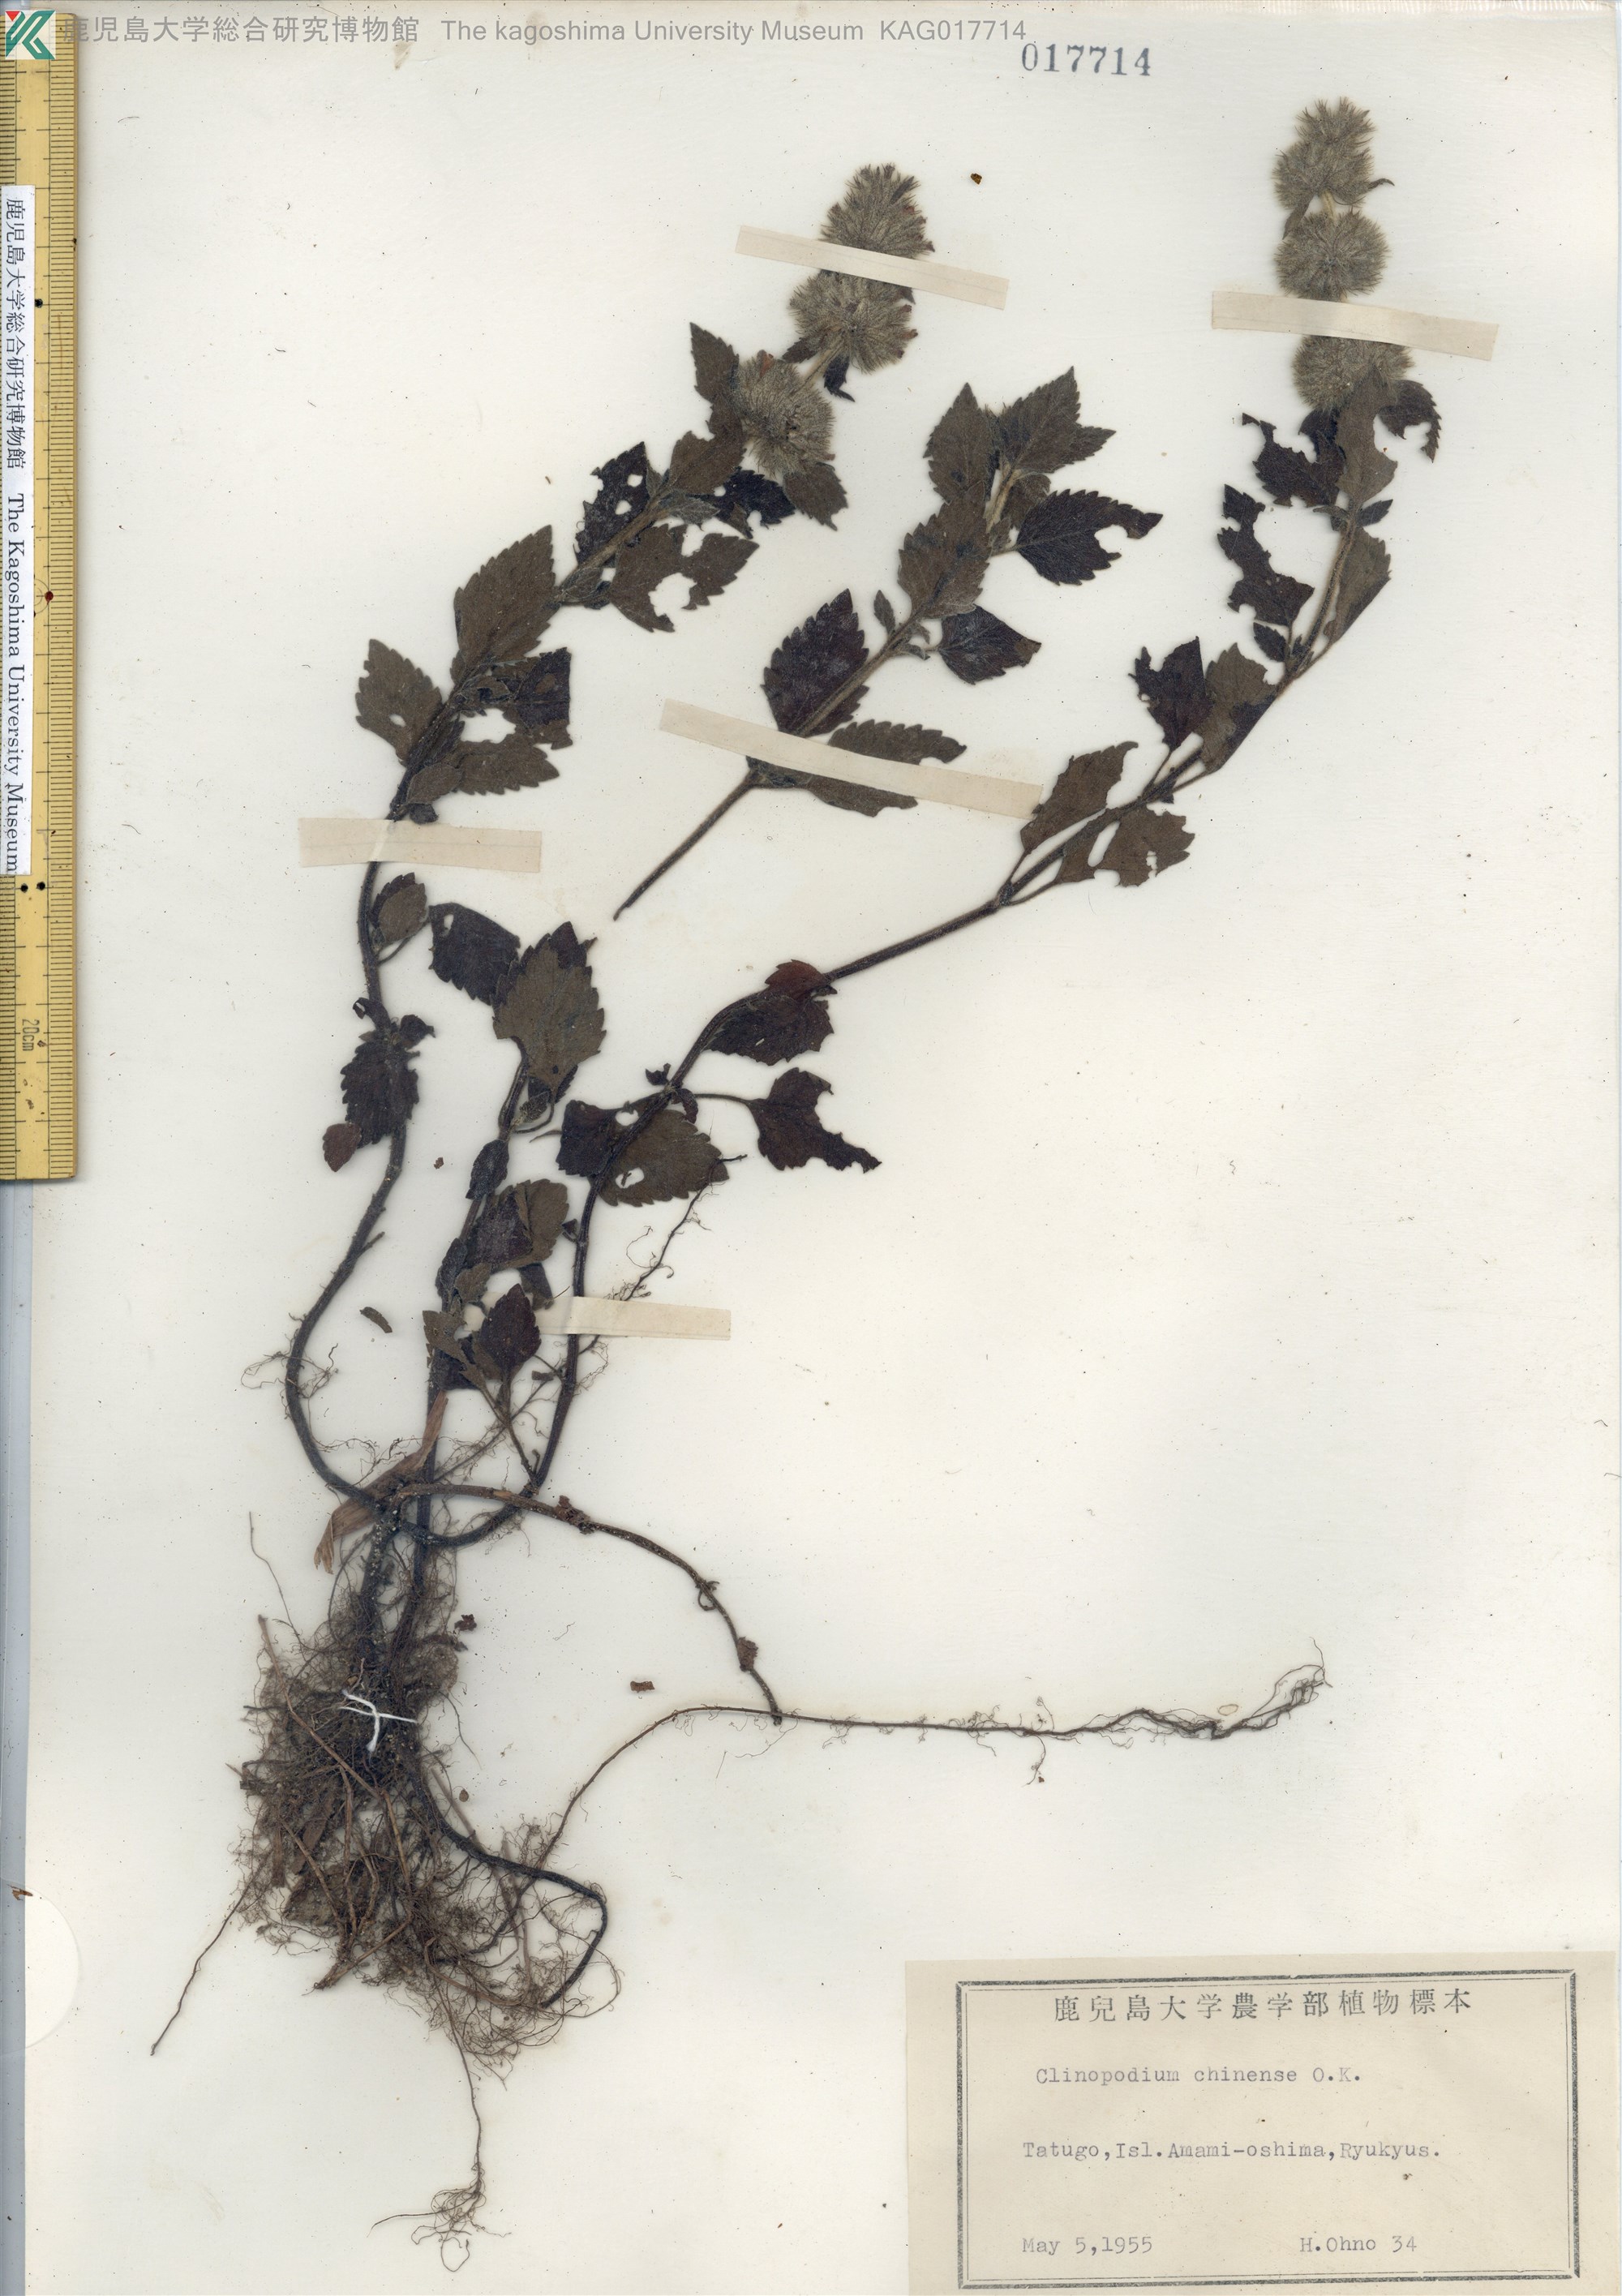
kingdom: Plantae
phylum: Tracheophyta
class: Magnoliopsida
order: Lamiales
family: Lamiaceae
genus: Clinopodium
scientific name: Clinopodium chinense
